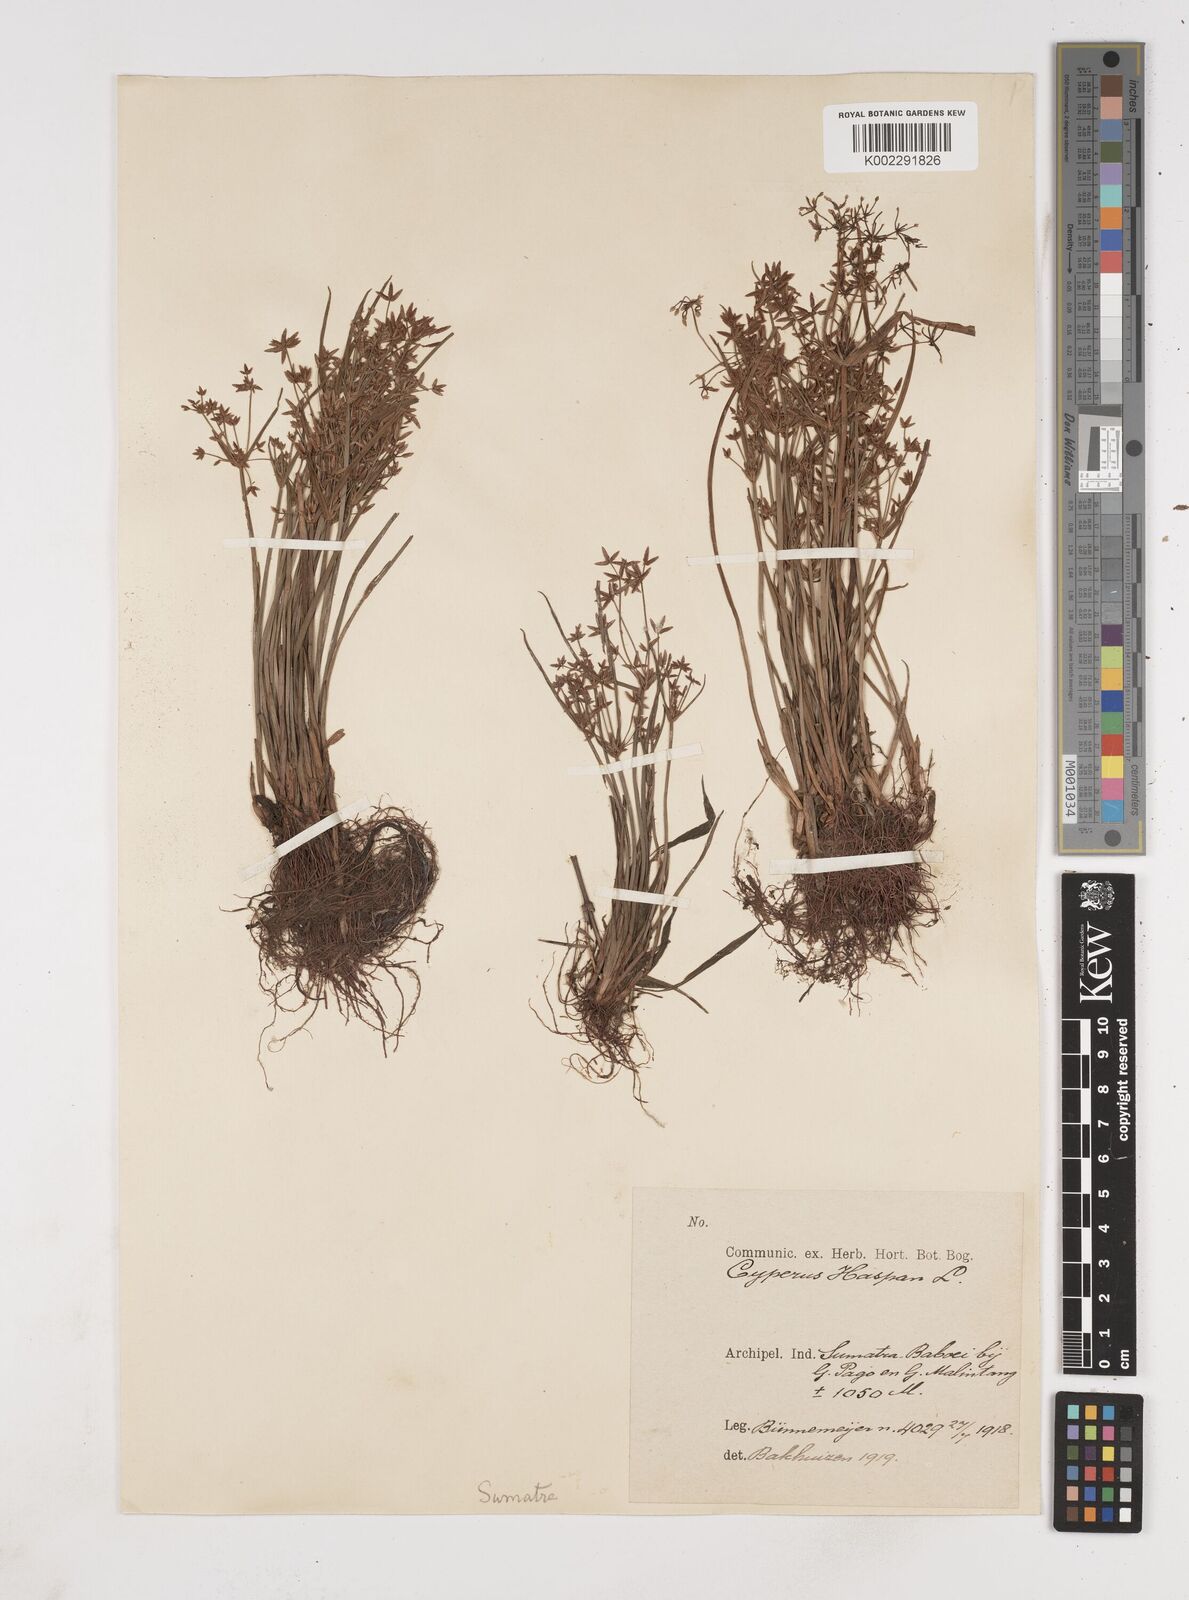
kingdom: Plantae
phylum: Tracheophyta
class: Liliopsida
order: Poales
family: Cyperaceae
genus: Cyperus
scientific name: Cyperus haspan
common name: Haspan flatsedge
